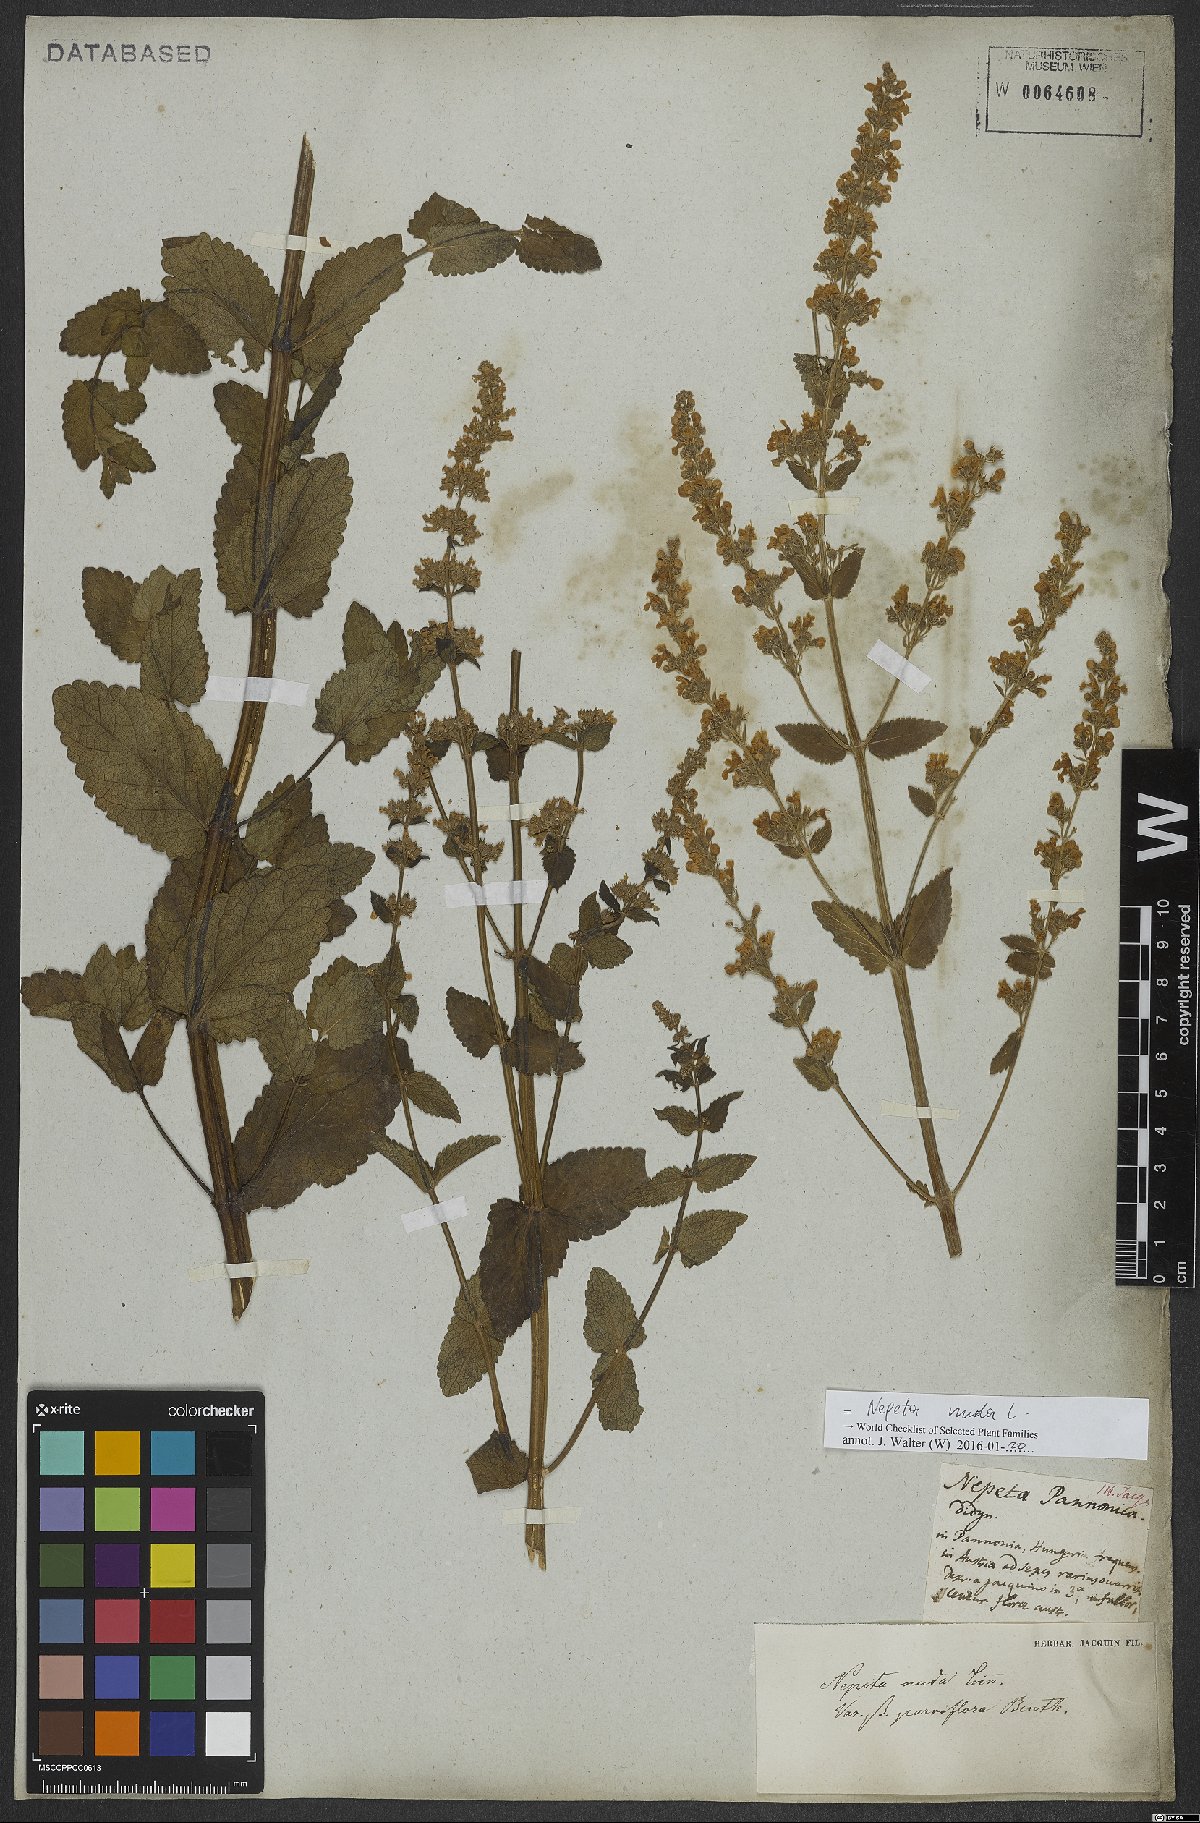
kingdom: Plantae
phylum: Tracheophyta
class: Magnoliopsida
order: Lamiales
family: Lamiaceae
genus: Nepeta
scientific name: Nepeta nuda
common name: Hairless catmint
